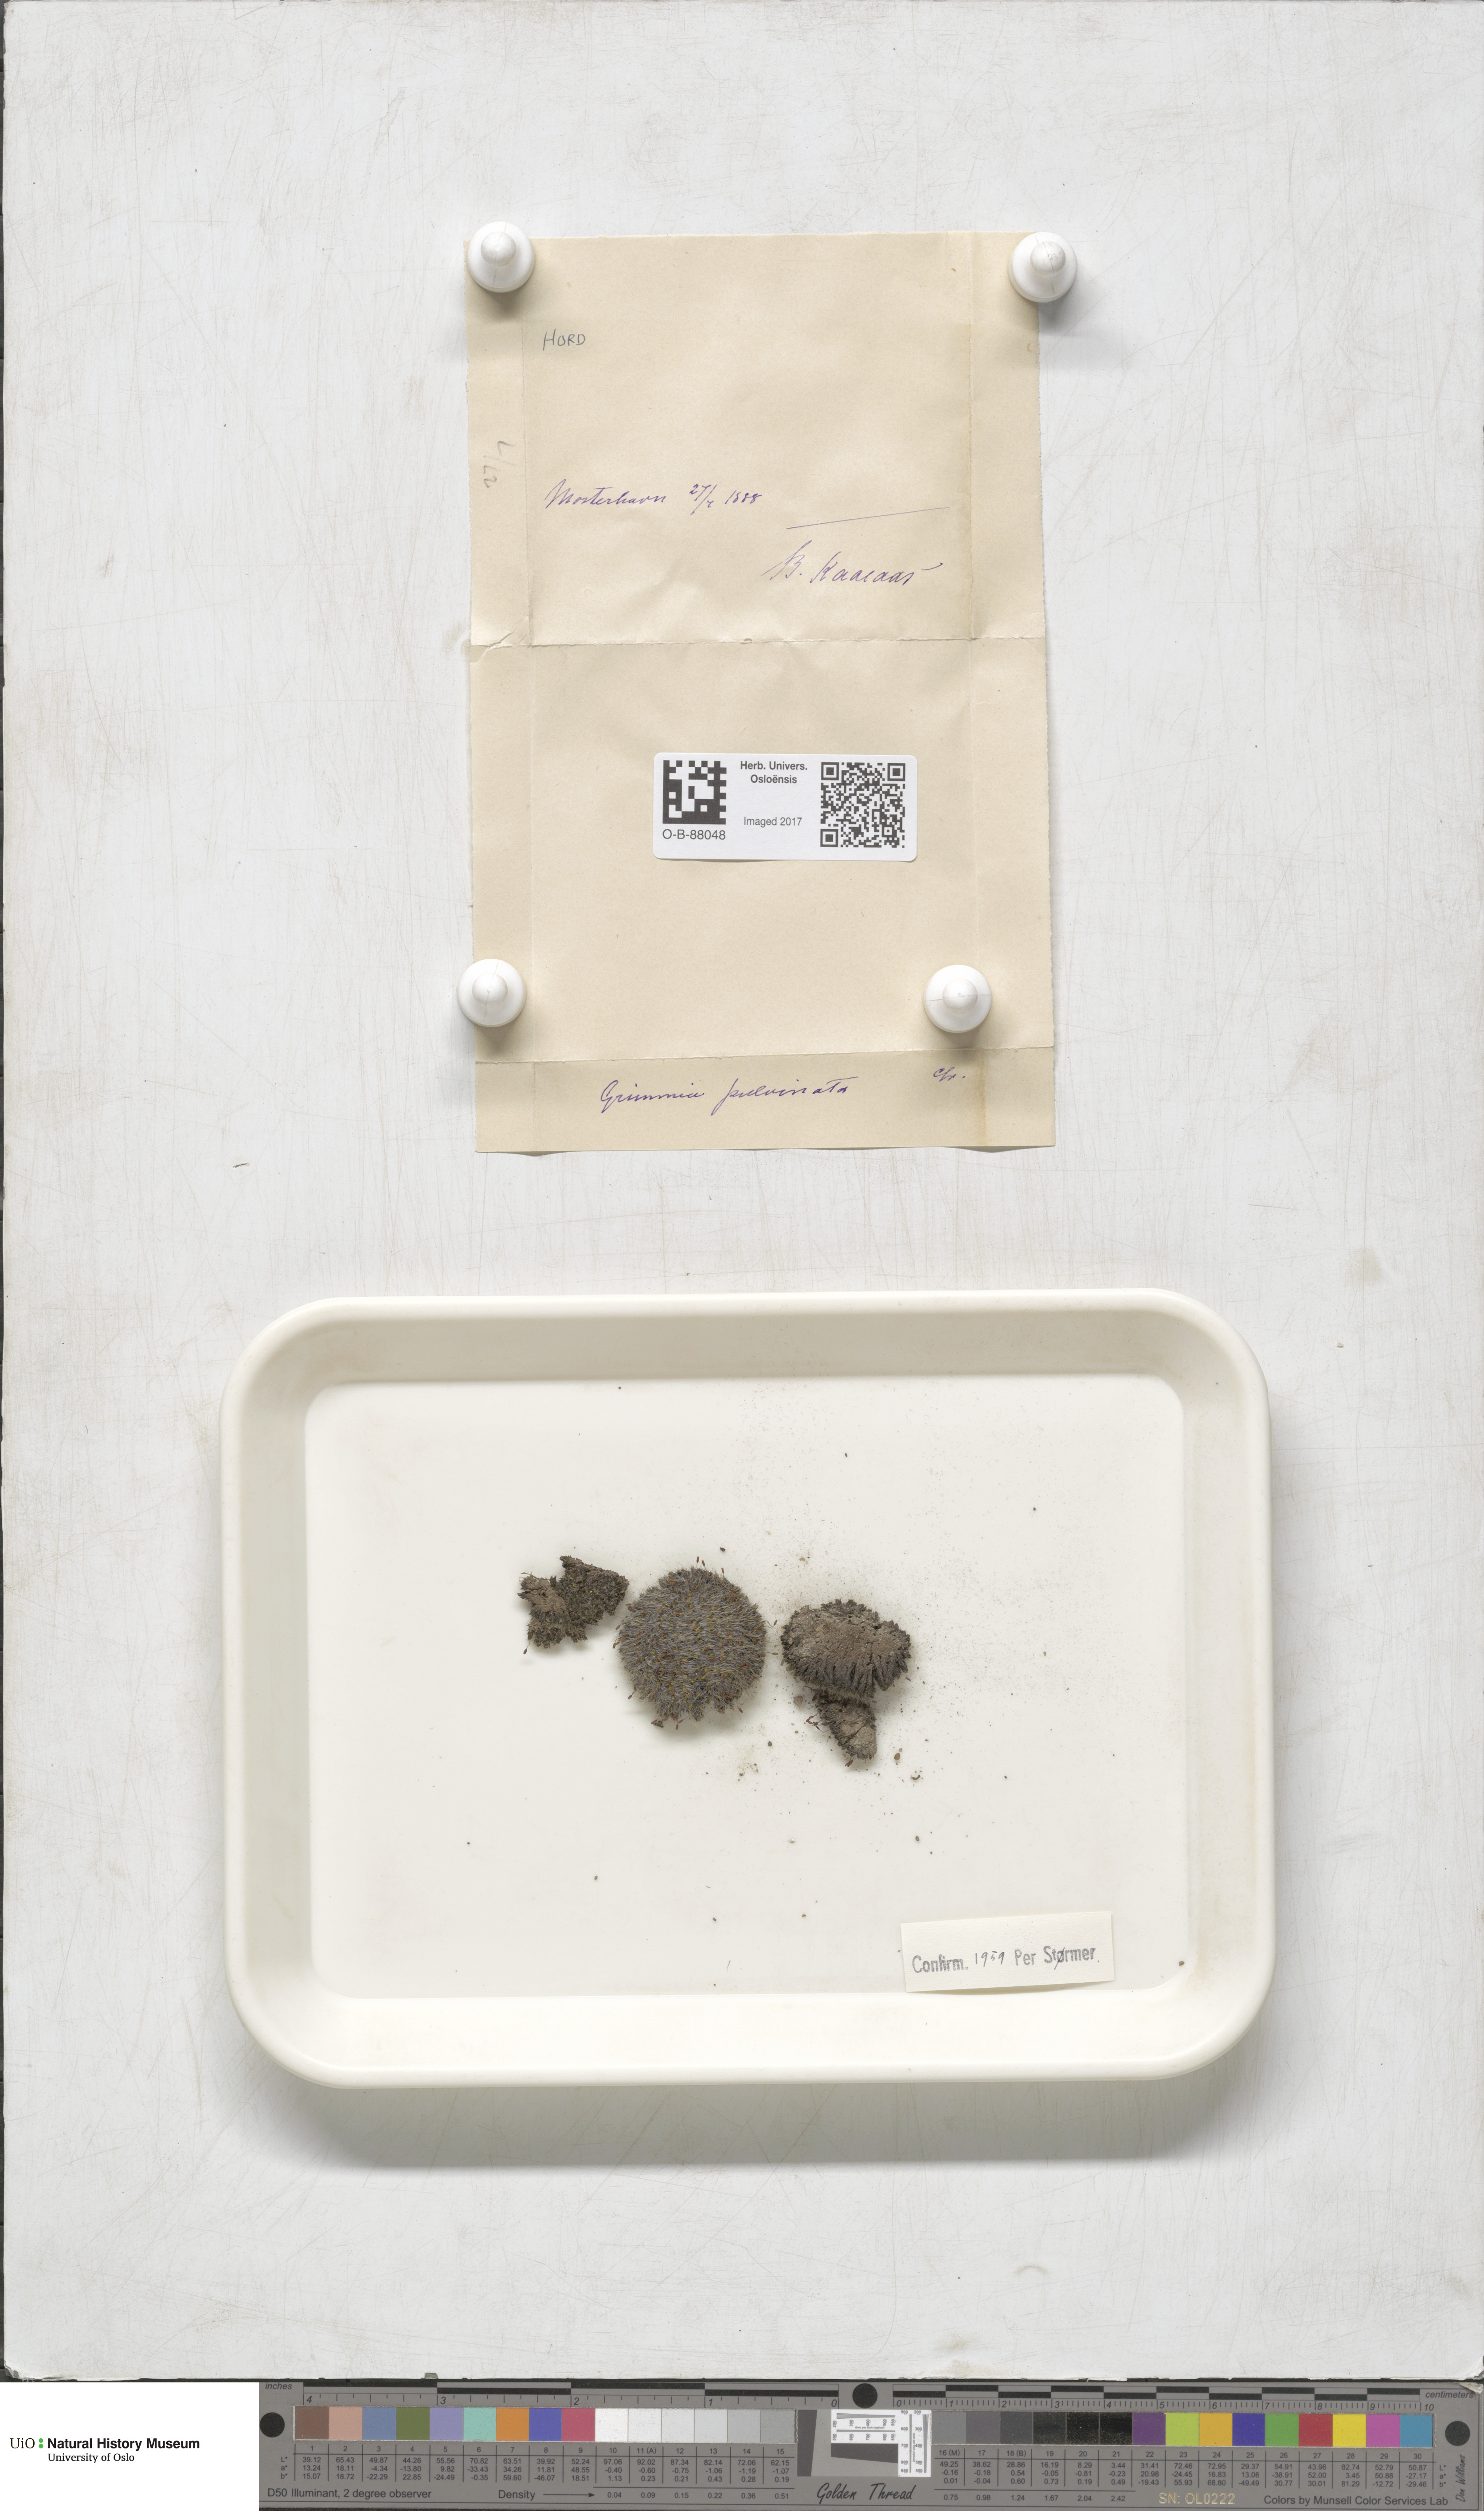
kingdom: Plantae
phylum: Bryophyta
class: Bryopsida
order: Grimmiales
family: Grimmiaceae
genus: Grimmia
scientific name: Grimmia pulvinata
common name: Grey-cushioned grimmia
